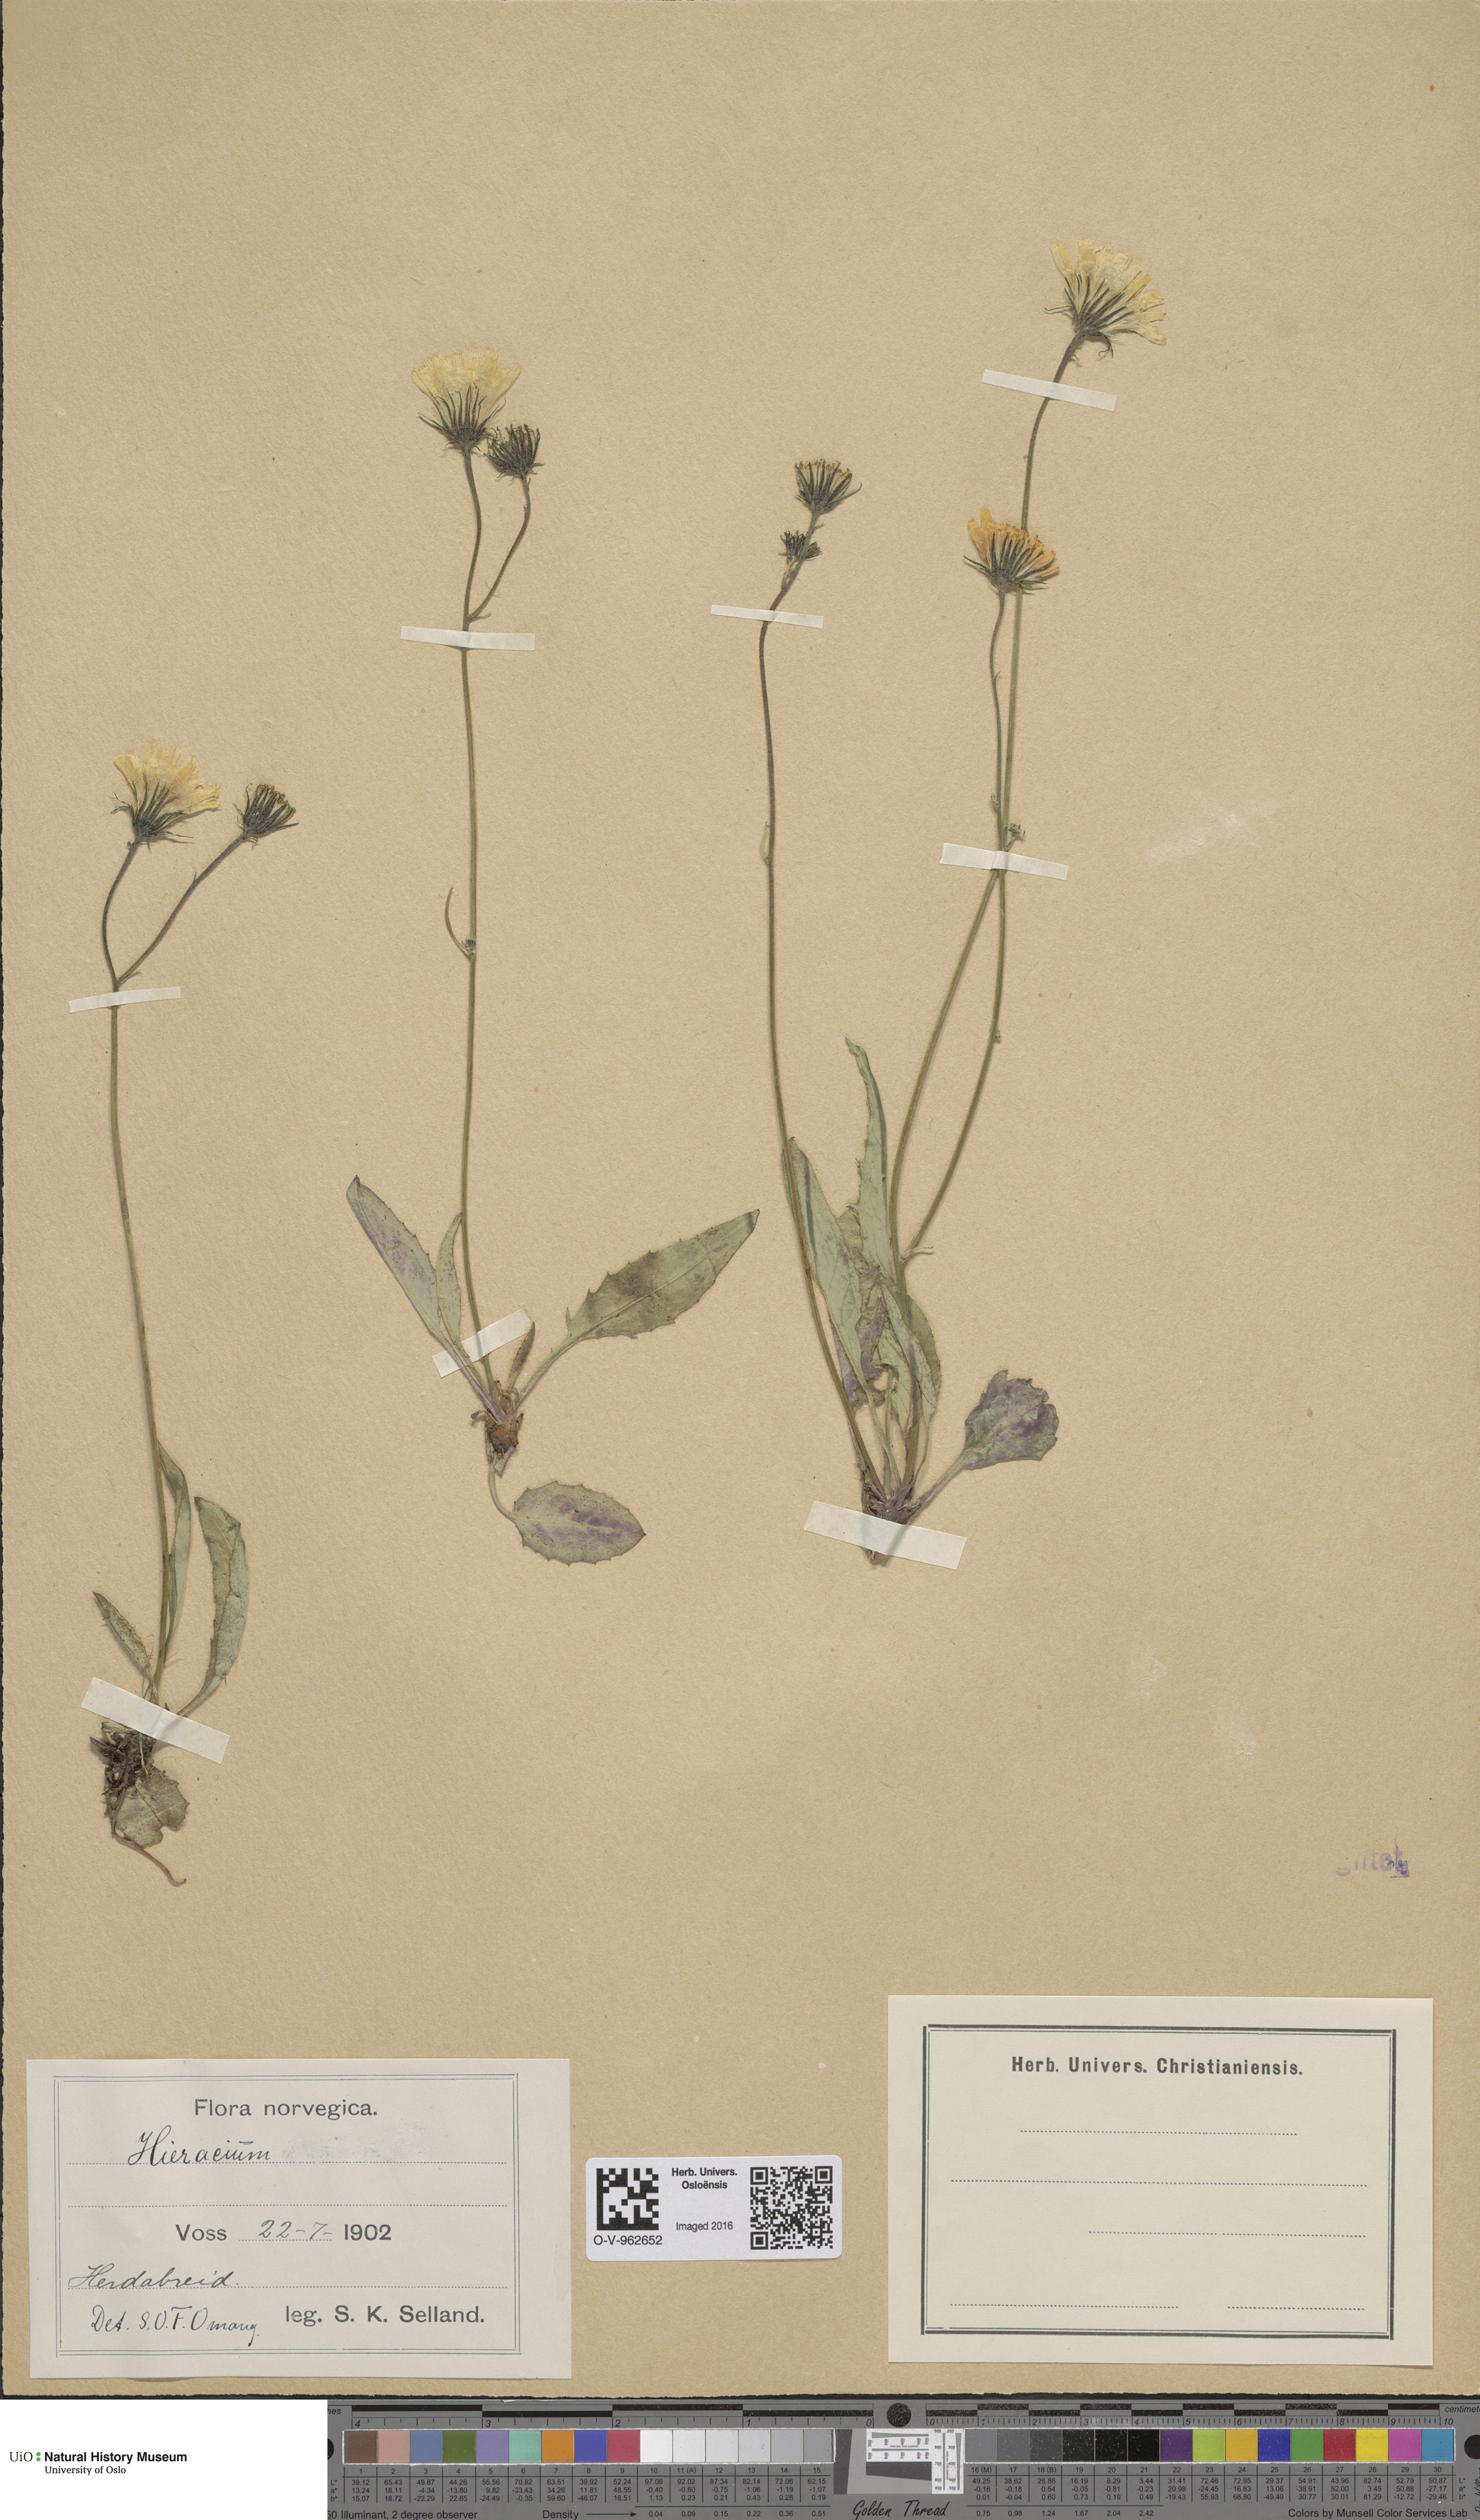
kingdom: Plantae
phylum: Tracheophyta
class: Magnoliopsida
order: Asterales
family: Asteraceae
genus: Hieracium
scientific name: Hieracium
